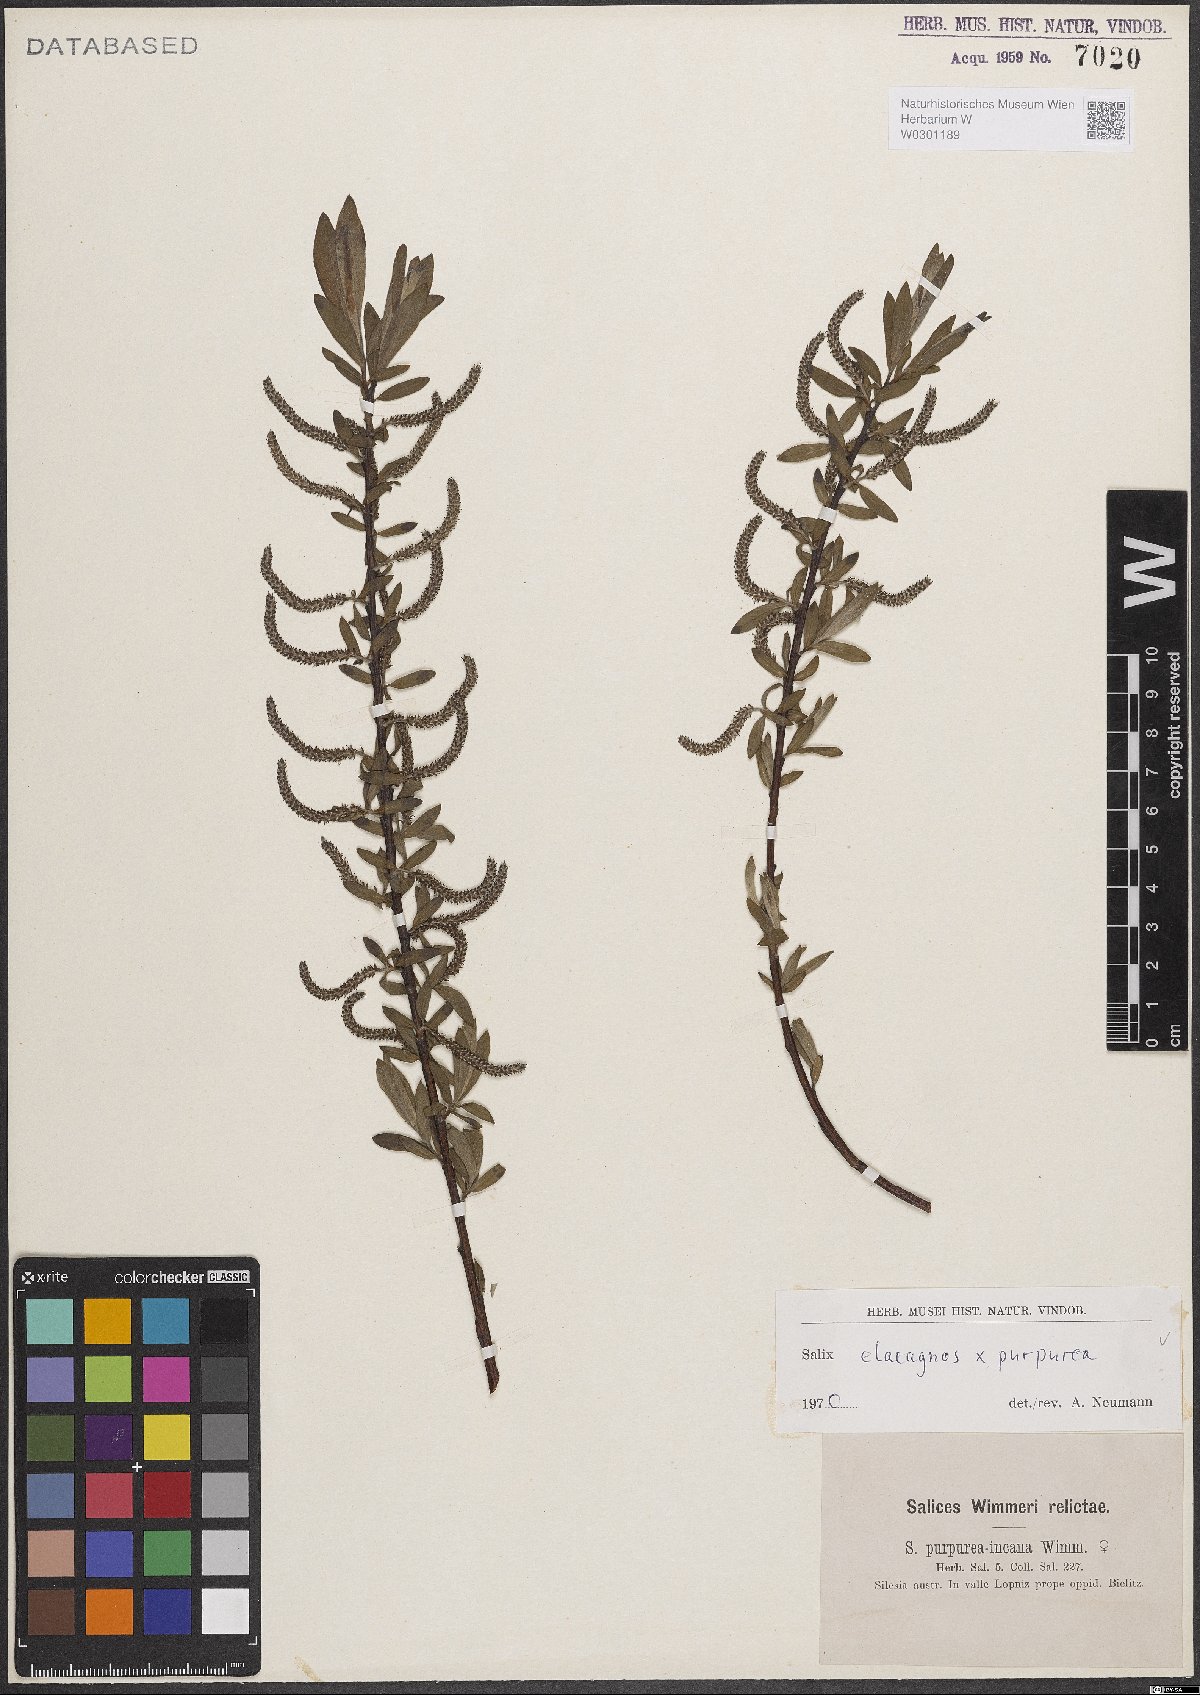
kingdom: Plantae
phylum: Tracheophyta
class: Magnoliopsida
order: Malpighiales
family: Salicaceae
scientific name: Salicaceae
